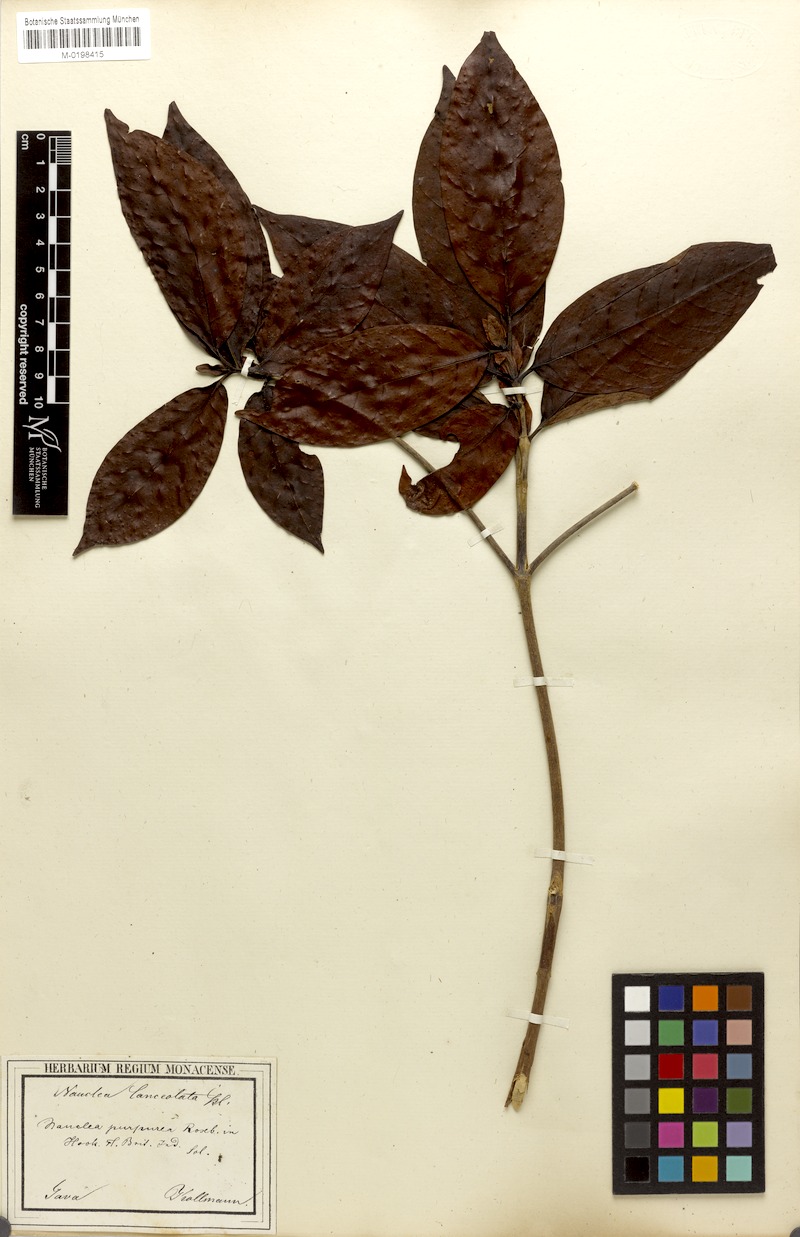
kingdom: Plantae
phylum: Tracheophyta
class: Magnoliopsida
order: Gentianales
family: Rubiaceae
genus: Neonauclea
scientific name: Neonauclea lanceolata
